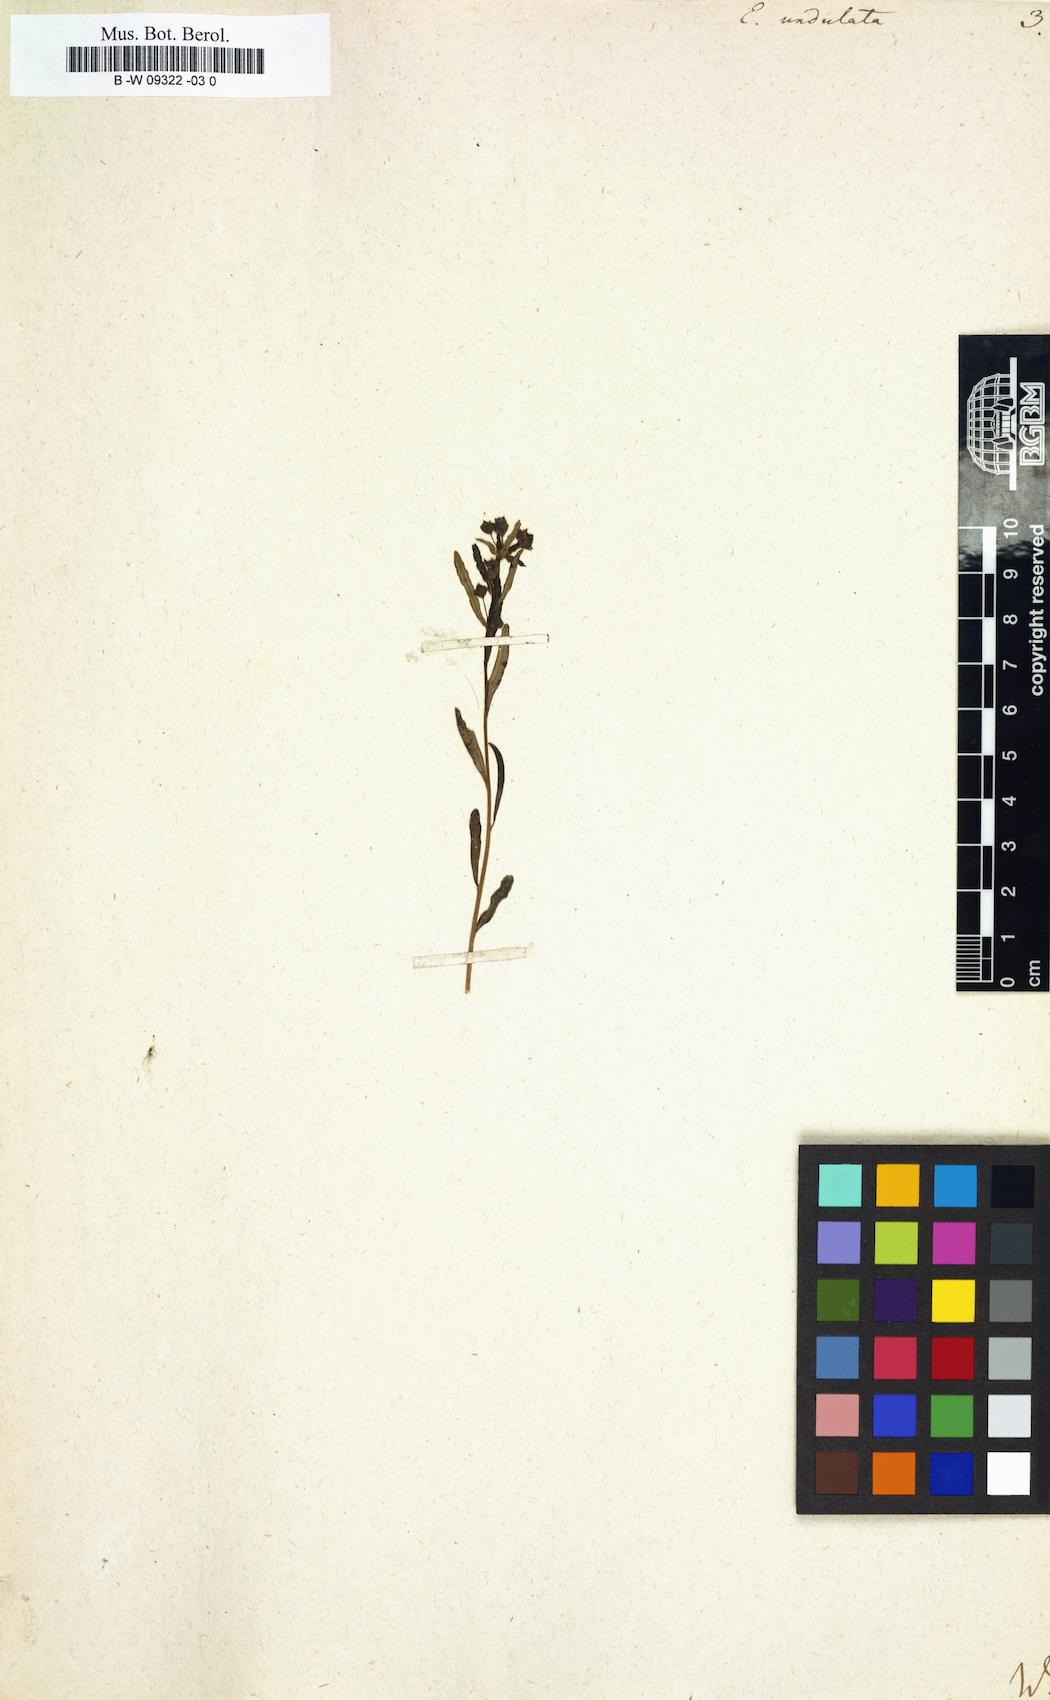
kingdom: Plantae
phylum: Tracheophyta
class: Magnoliopsida
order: Malpighiales
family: Euphorbiaceae
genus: Euphorbia
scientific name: Euphorbia undulata
